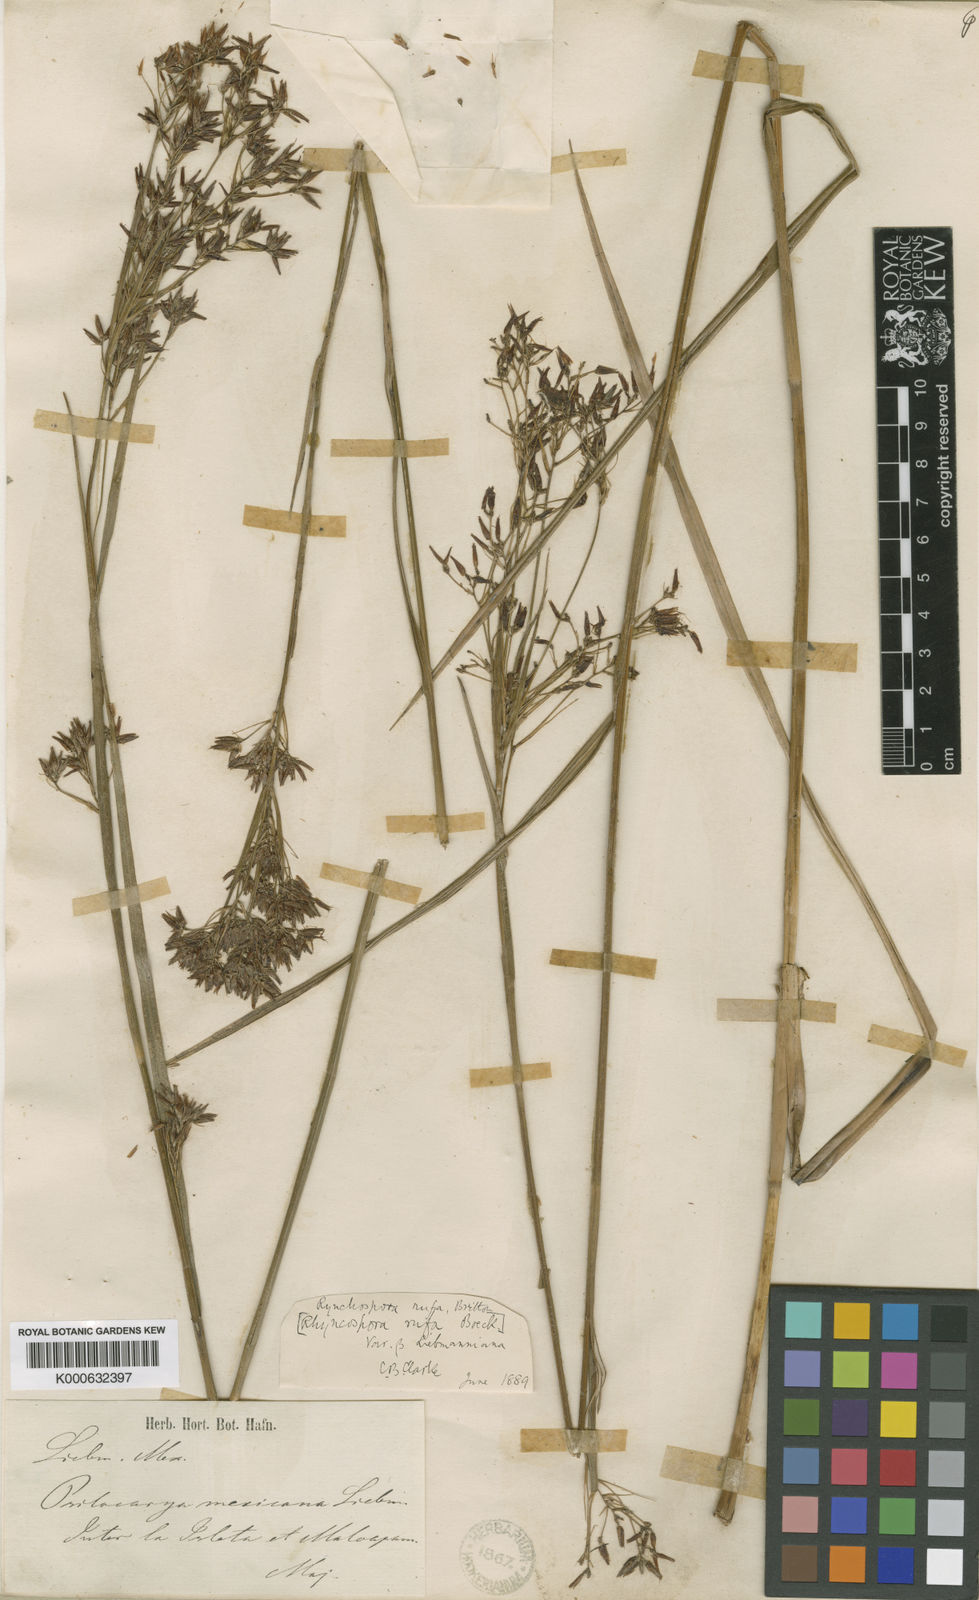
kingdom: Plantae
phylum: Tracheophyta
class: Liliopsida
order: Poales
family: Cyperaceae
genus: Rhynchospora
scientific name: Rhynchospora
